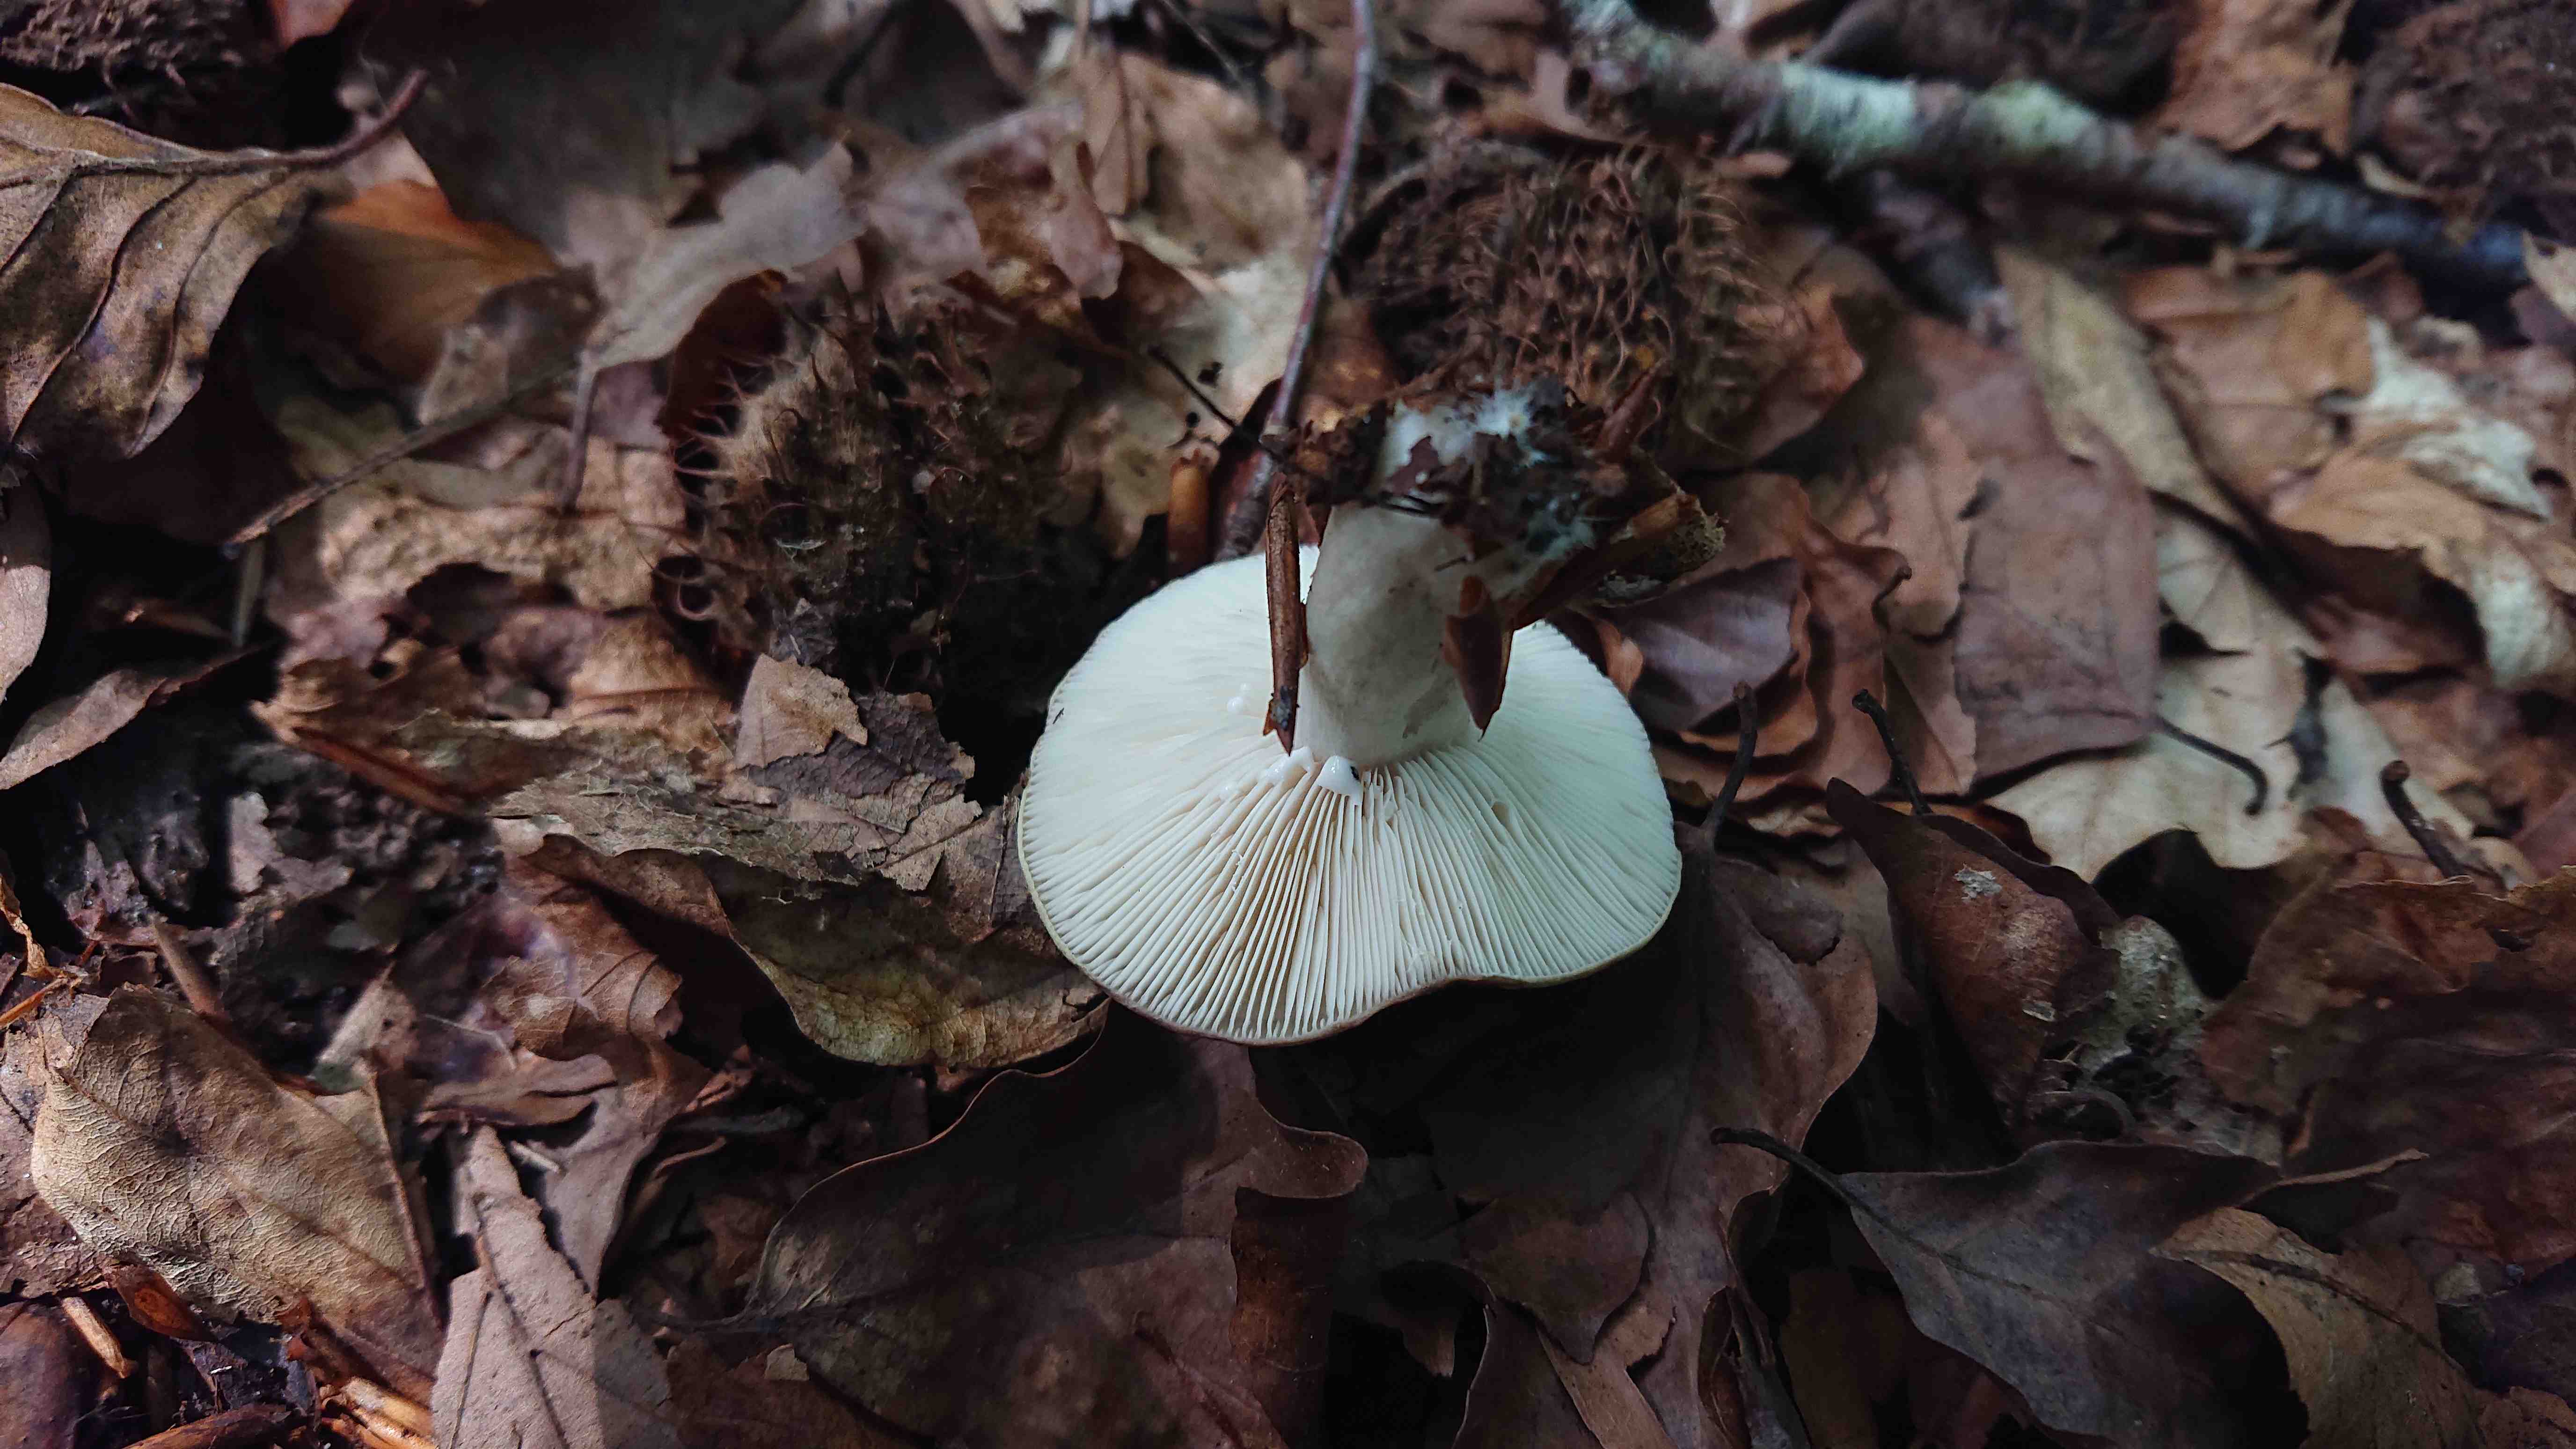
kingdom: Fungi
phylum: Basidiomycota
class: Agaricomycetes
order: Russulales
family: Russulaceae
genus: Lactarius
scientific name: Lactarius blennius
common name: dråbeplettet mælkehat
